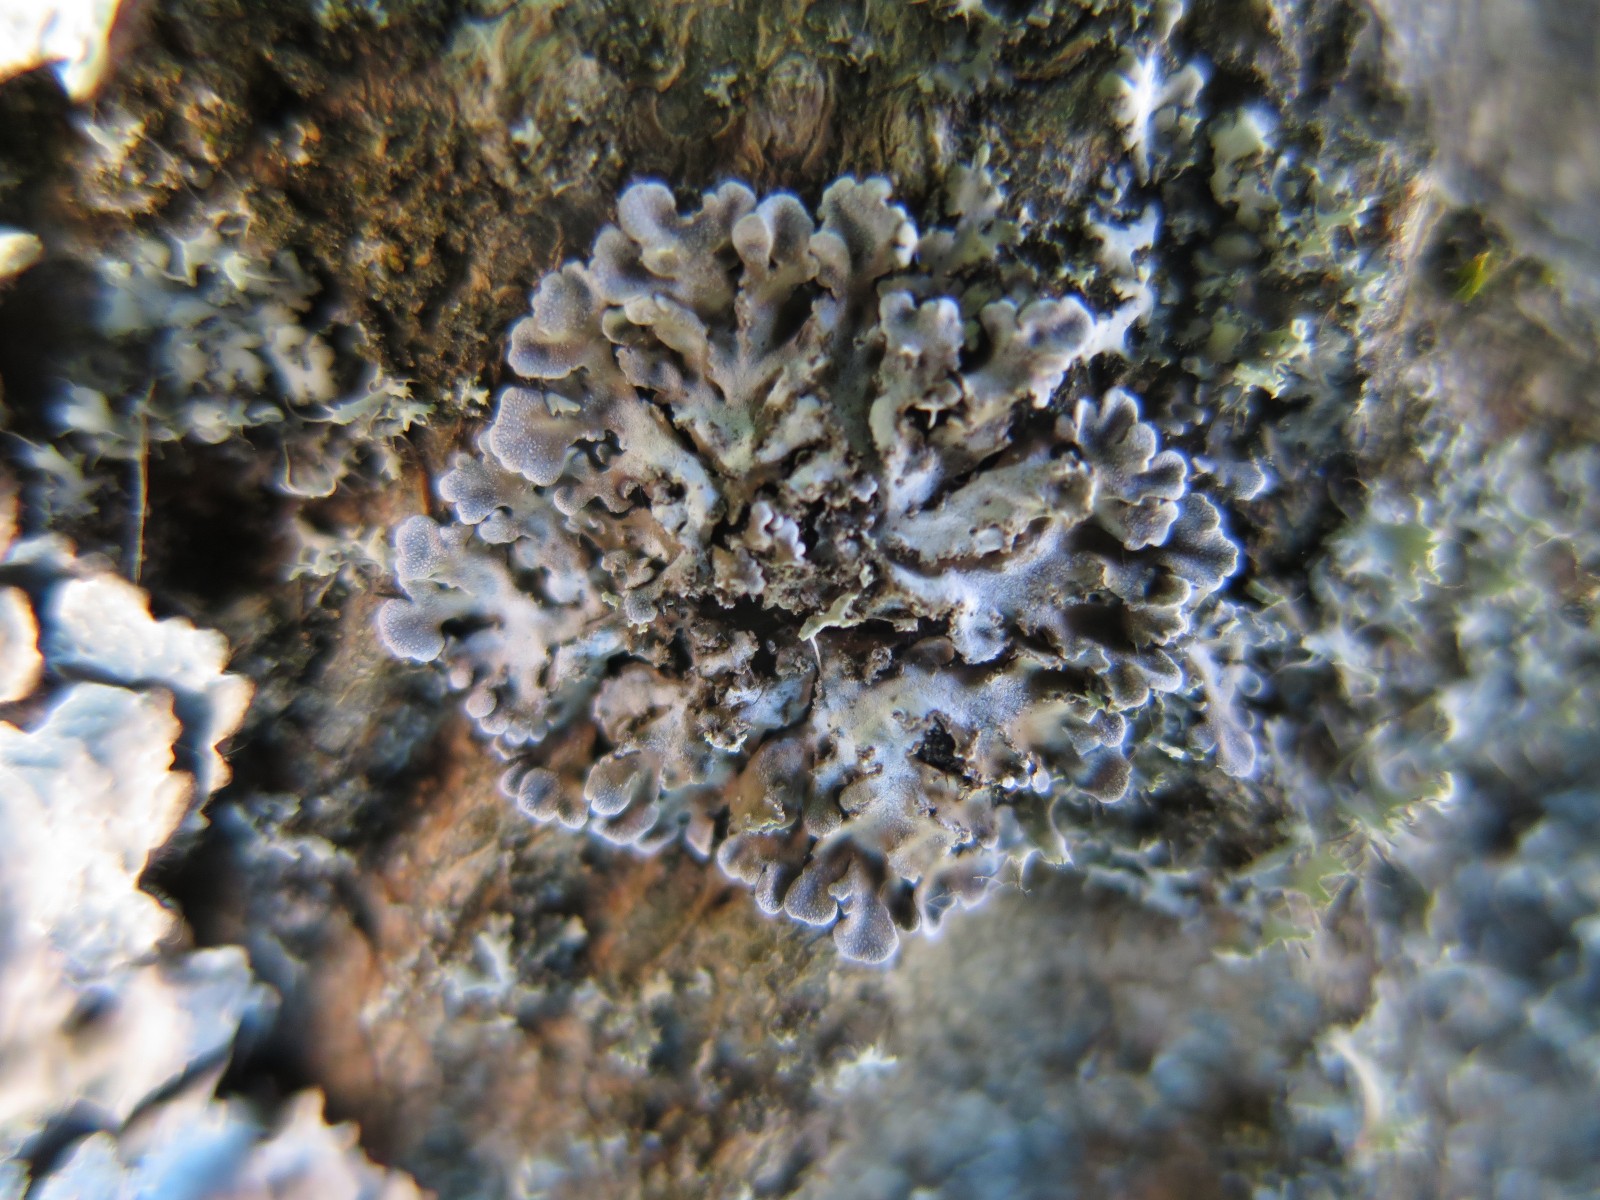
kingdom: Fungi
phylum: Ascomycota
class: Lecanoromycetes
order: Caliciales
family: Physciaceae
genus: Physconia
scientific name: Physconia
